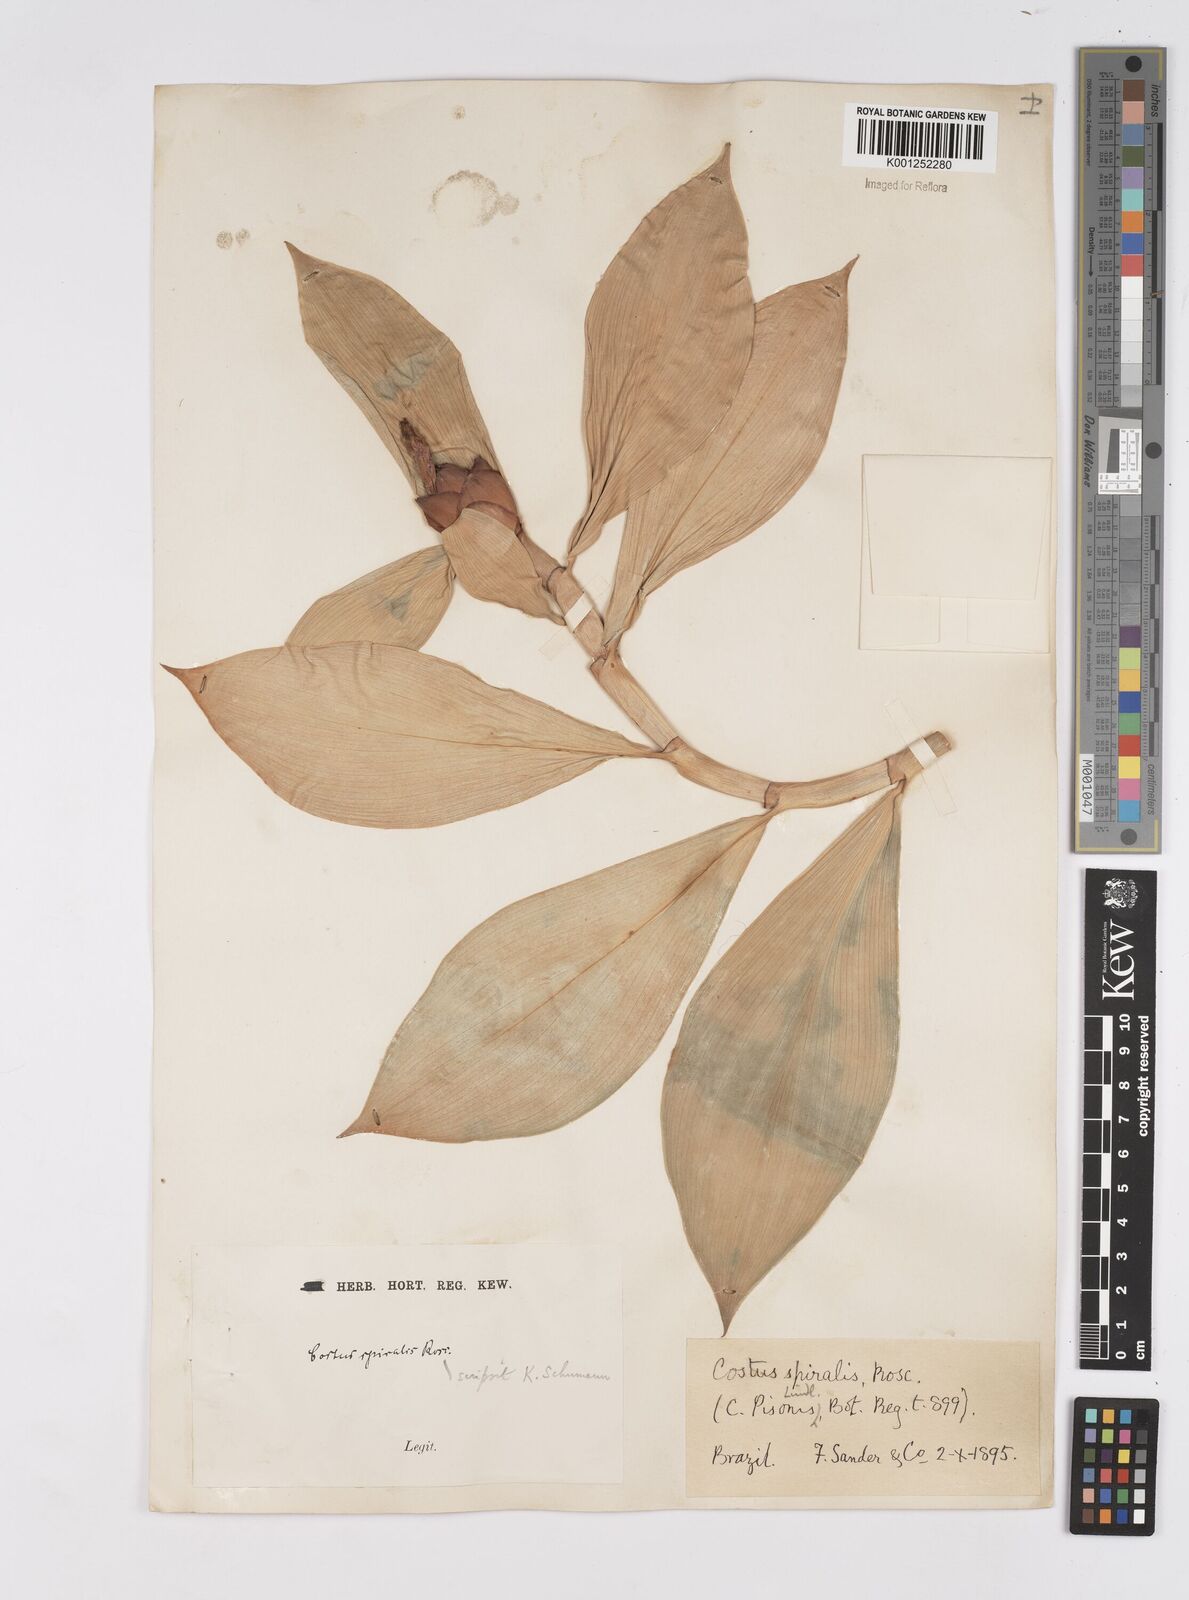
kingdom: Plantae
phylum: Tracheophyta
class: Liliopsida
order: Zingiberales
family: Costaceae
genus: Costus
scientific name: Costus spiralis
